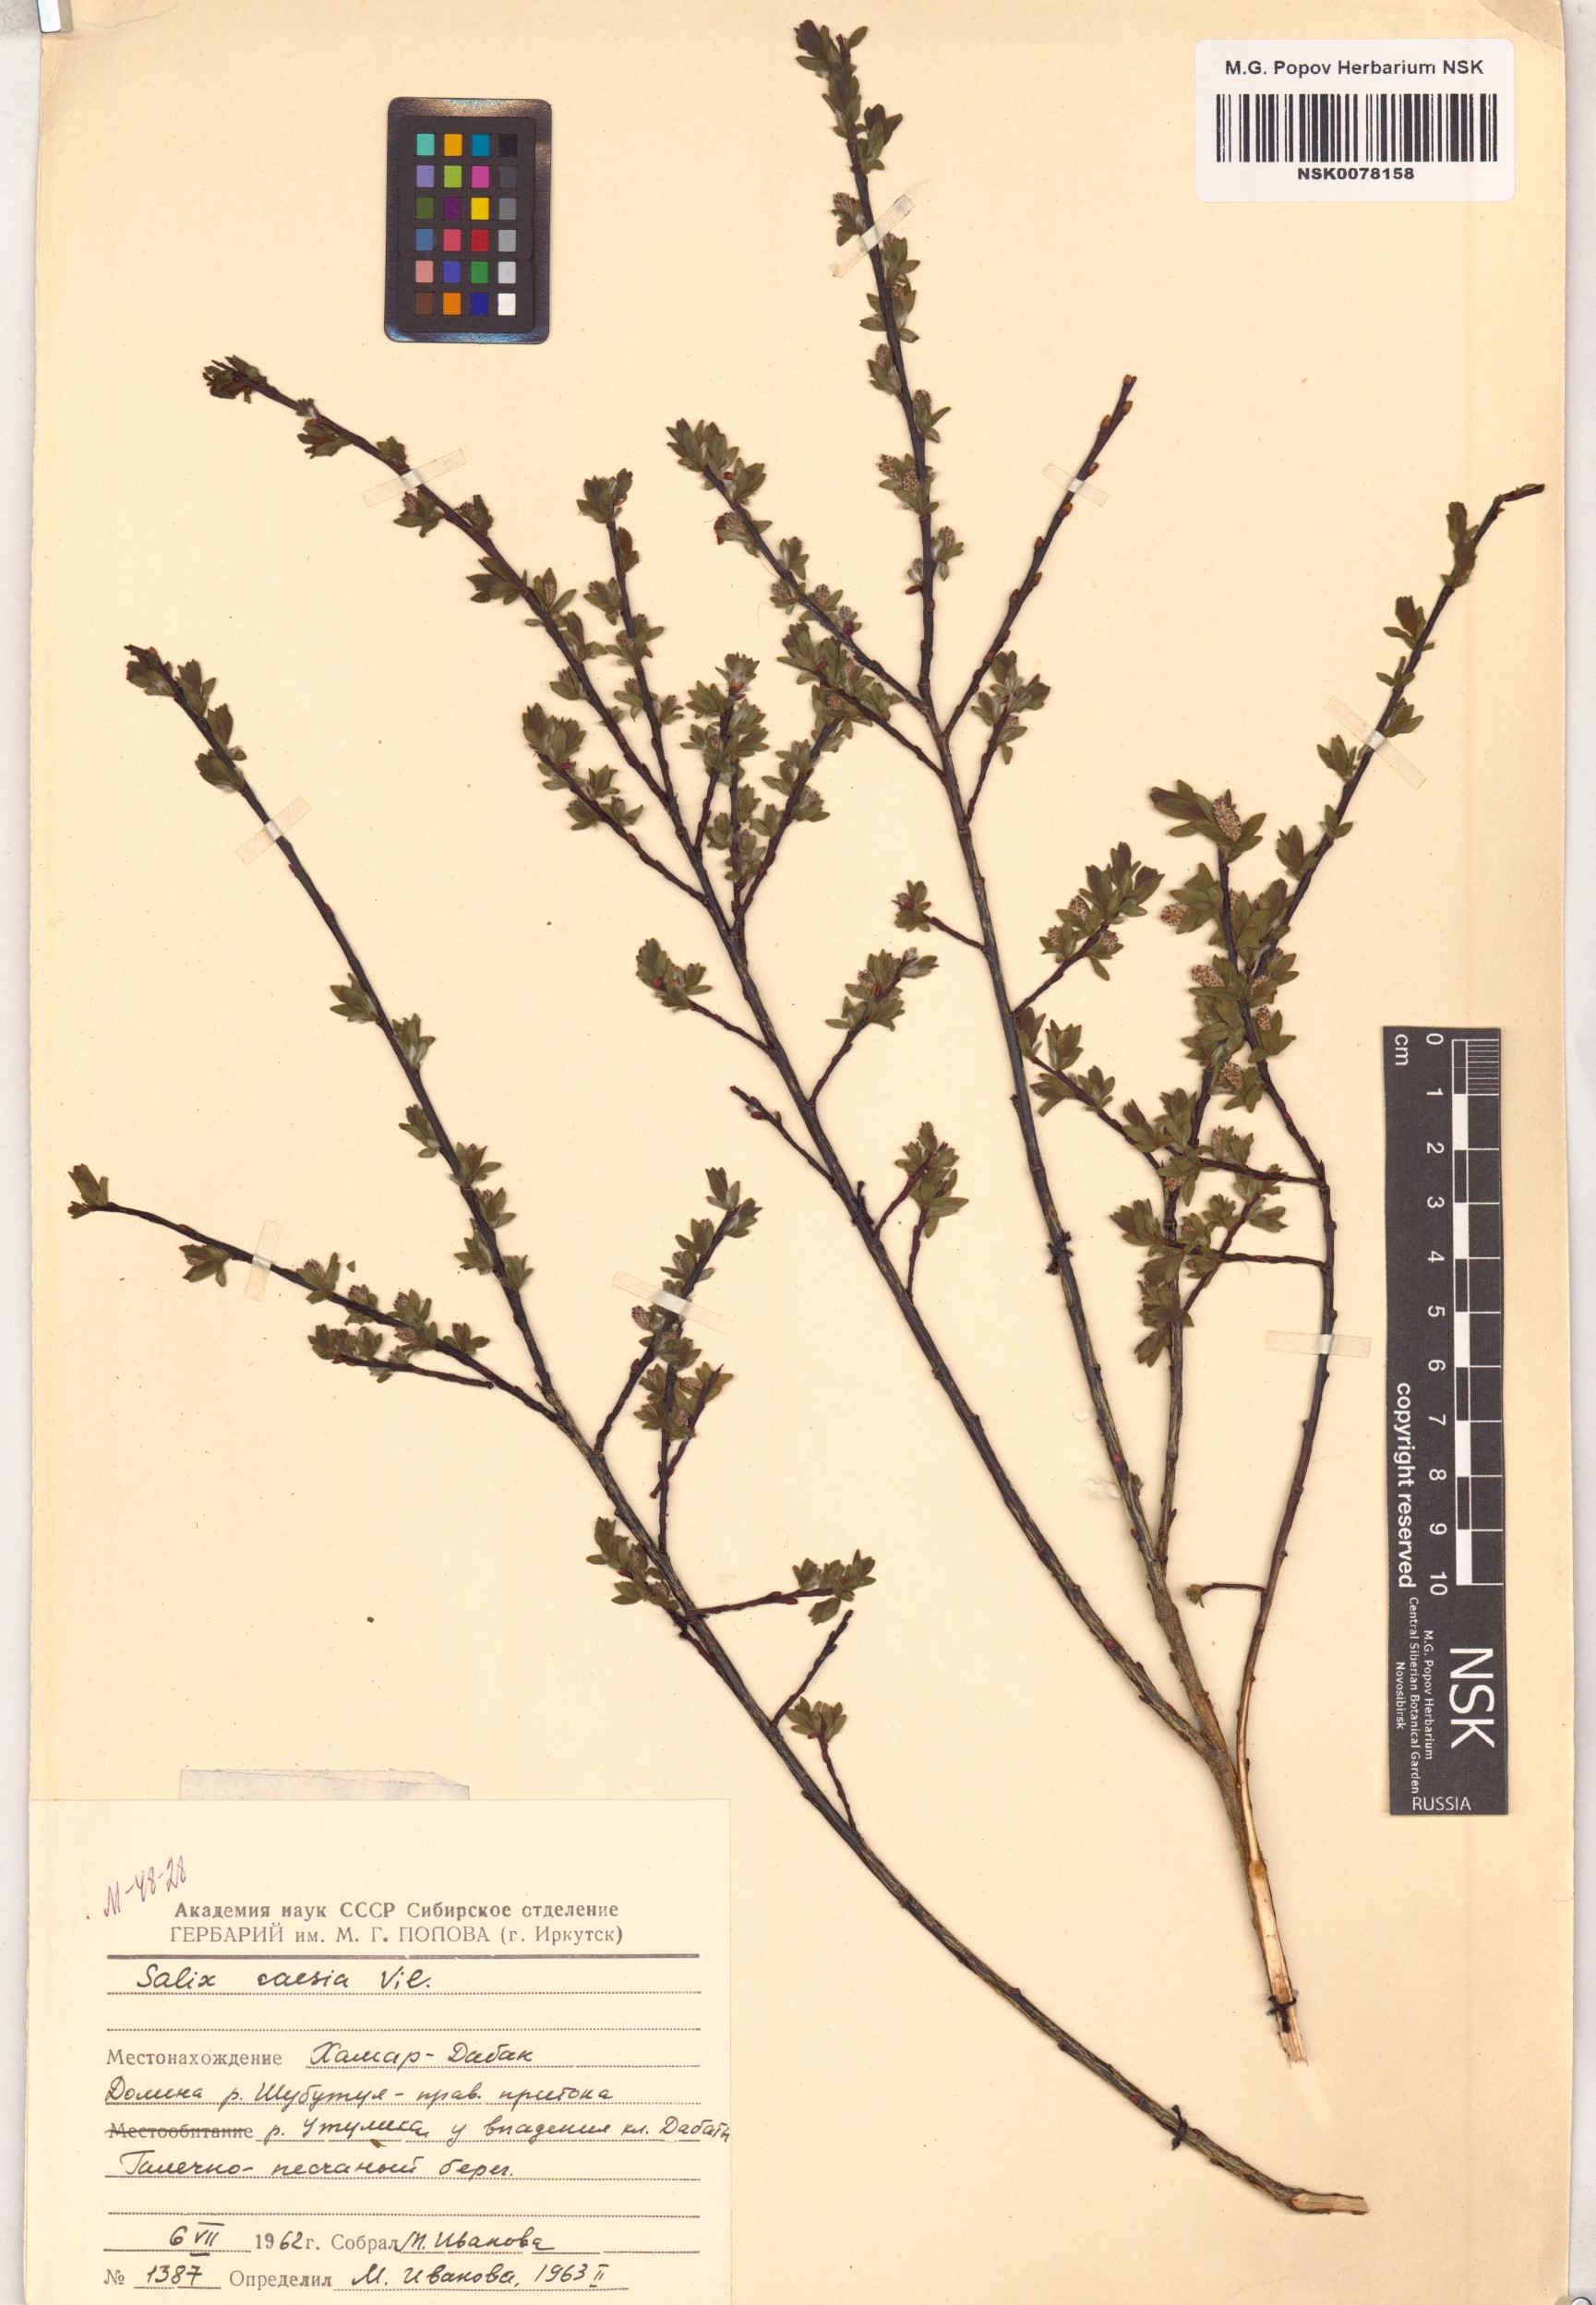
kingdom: Plantae
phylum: Tracheophyta
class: Magnoliopsida
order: Malpighiales
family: Salicaceae
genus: Salix
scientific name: Salix caesia
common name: Blue willow
